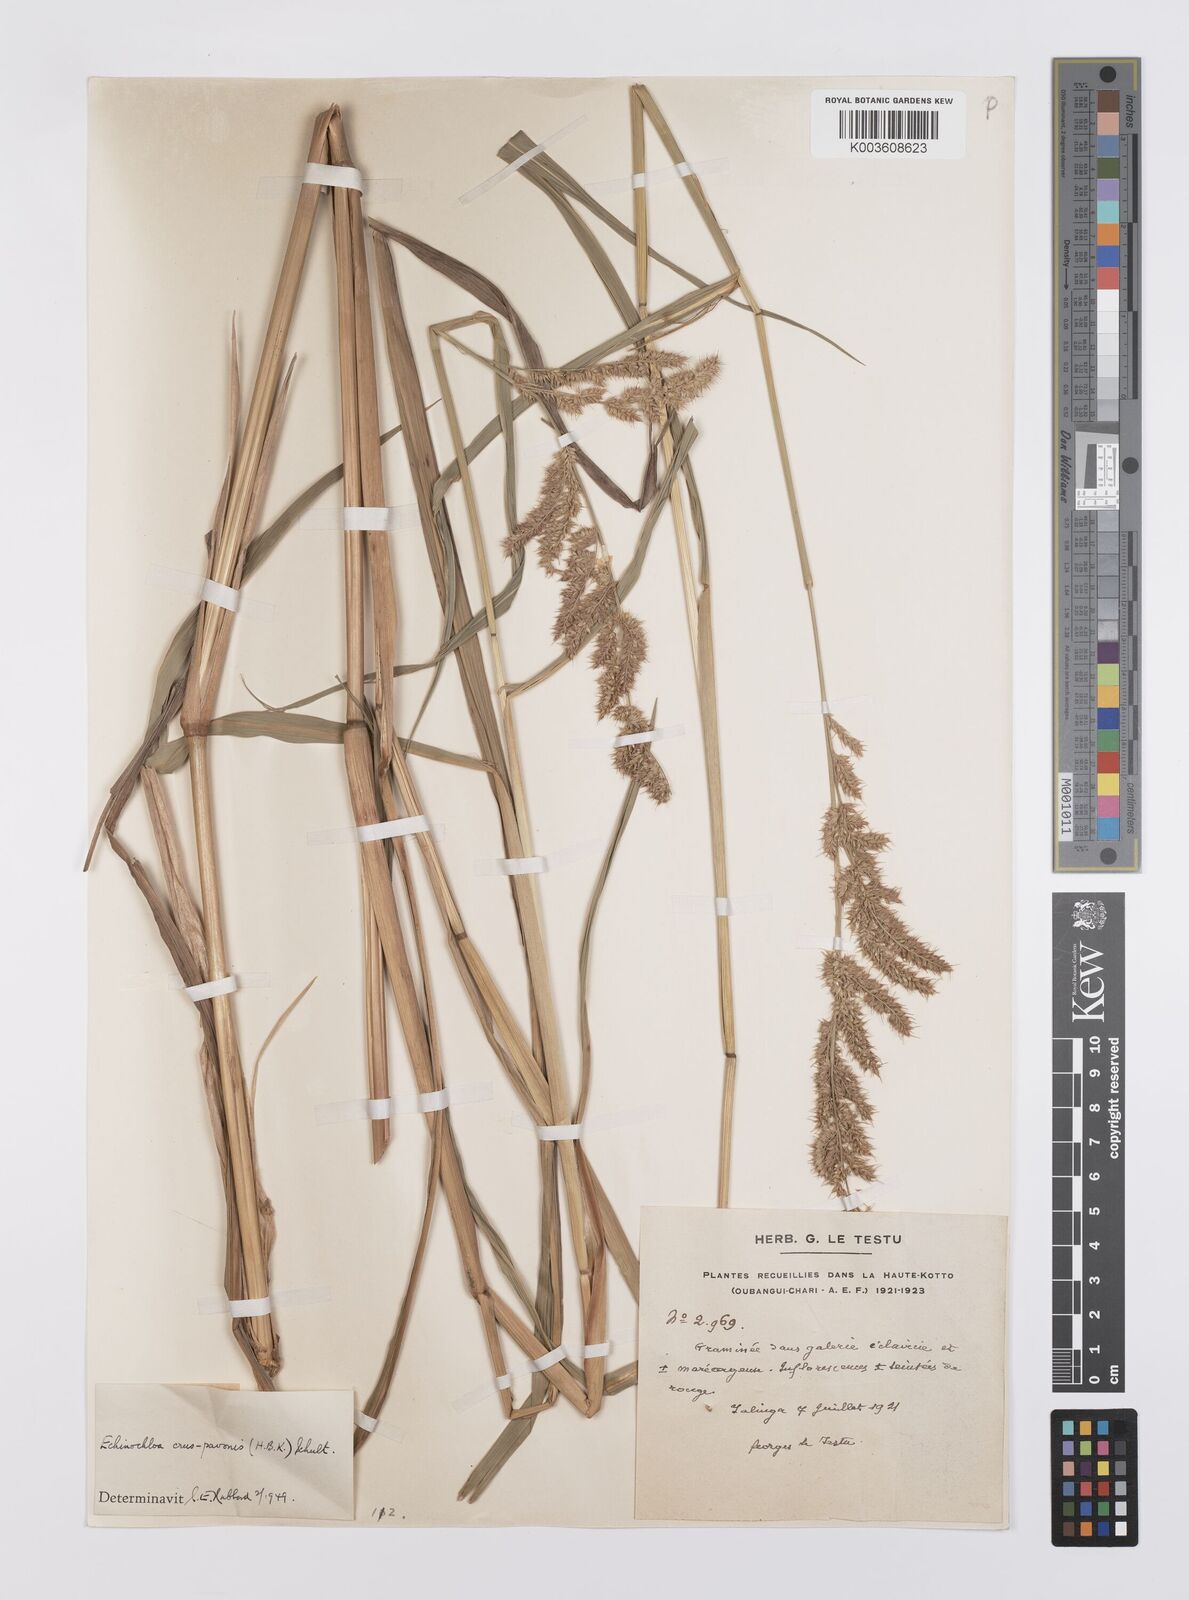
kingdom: Plantae
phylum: Tracheophyta
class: Liliopsida
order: Poales
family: Poaceae
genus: Echinochloa
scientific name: Echinochloa crus-pavonis
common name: Gulf cockspur grass
